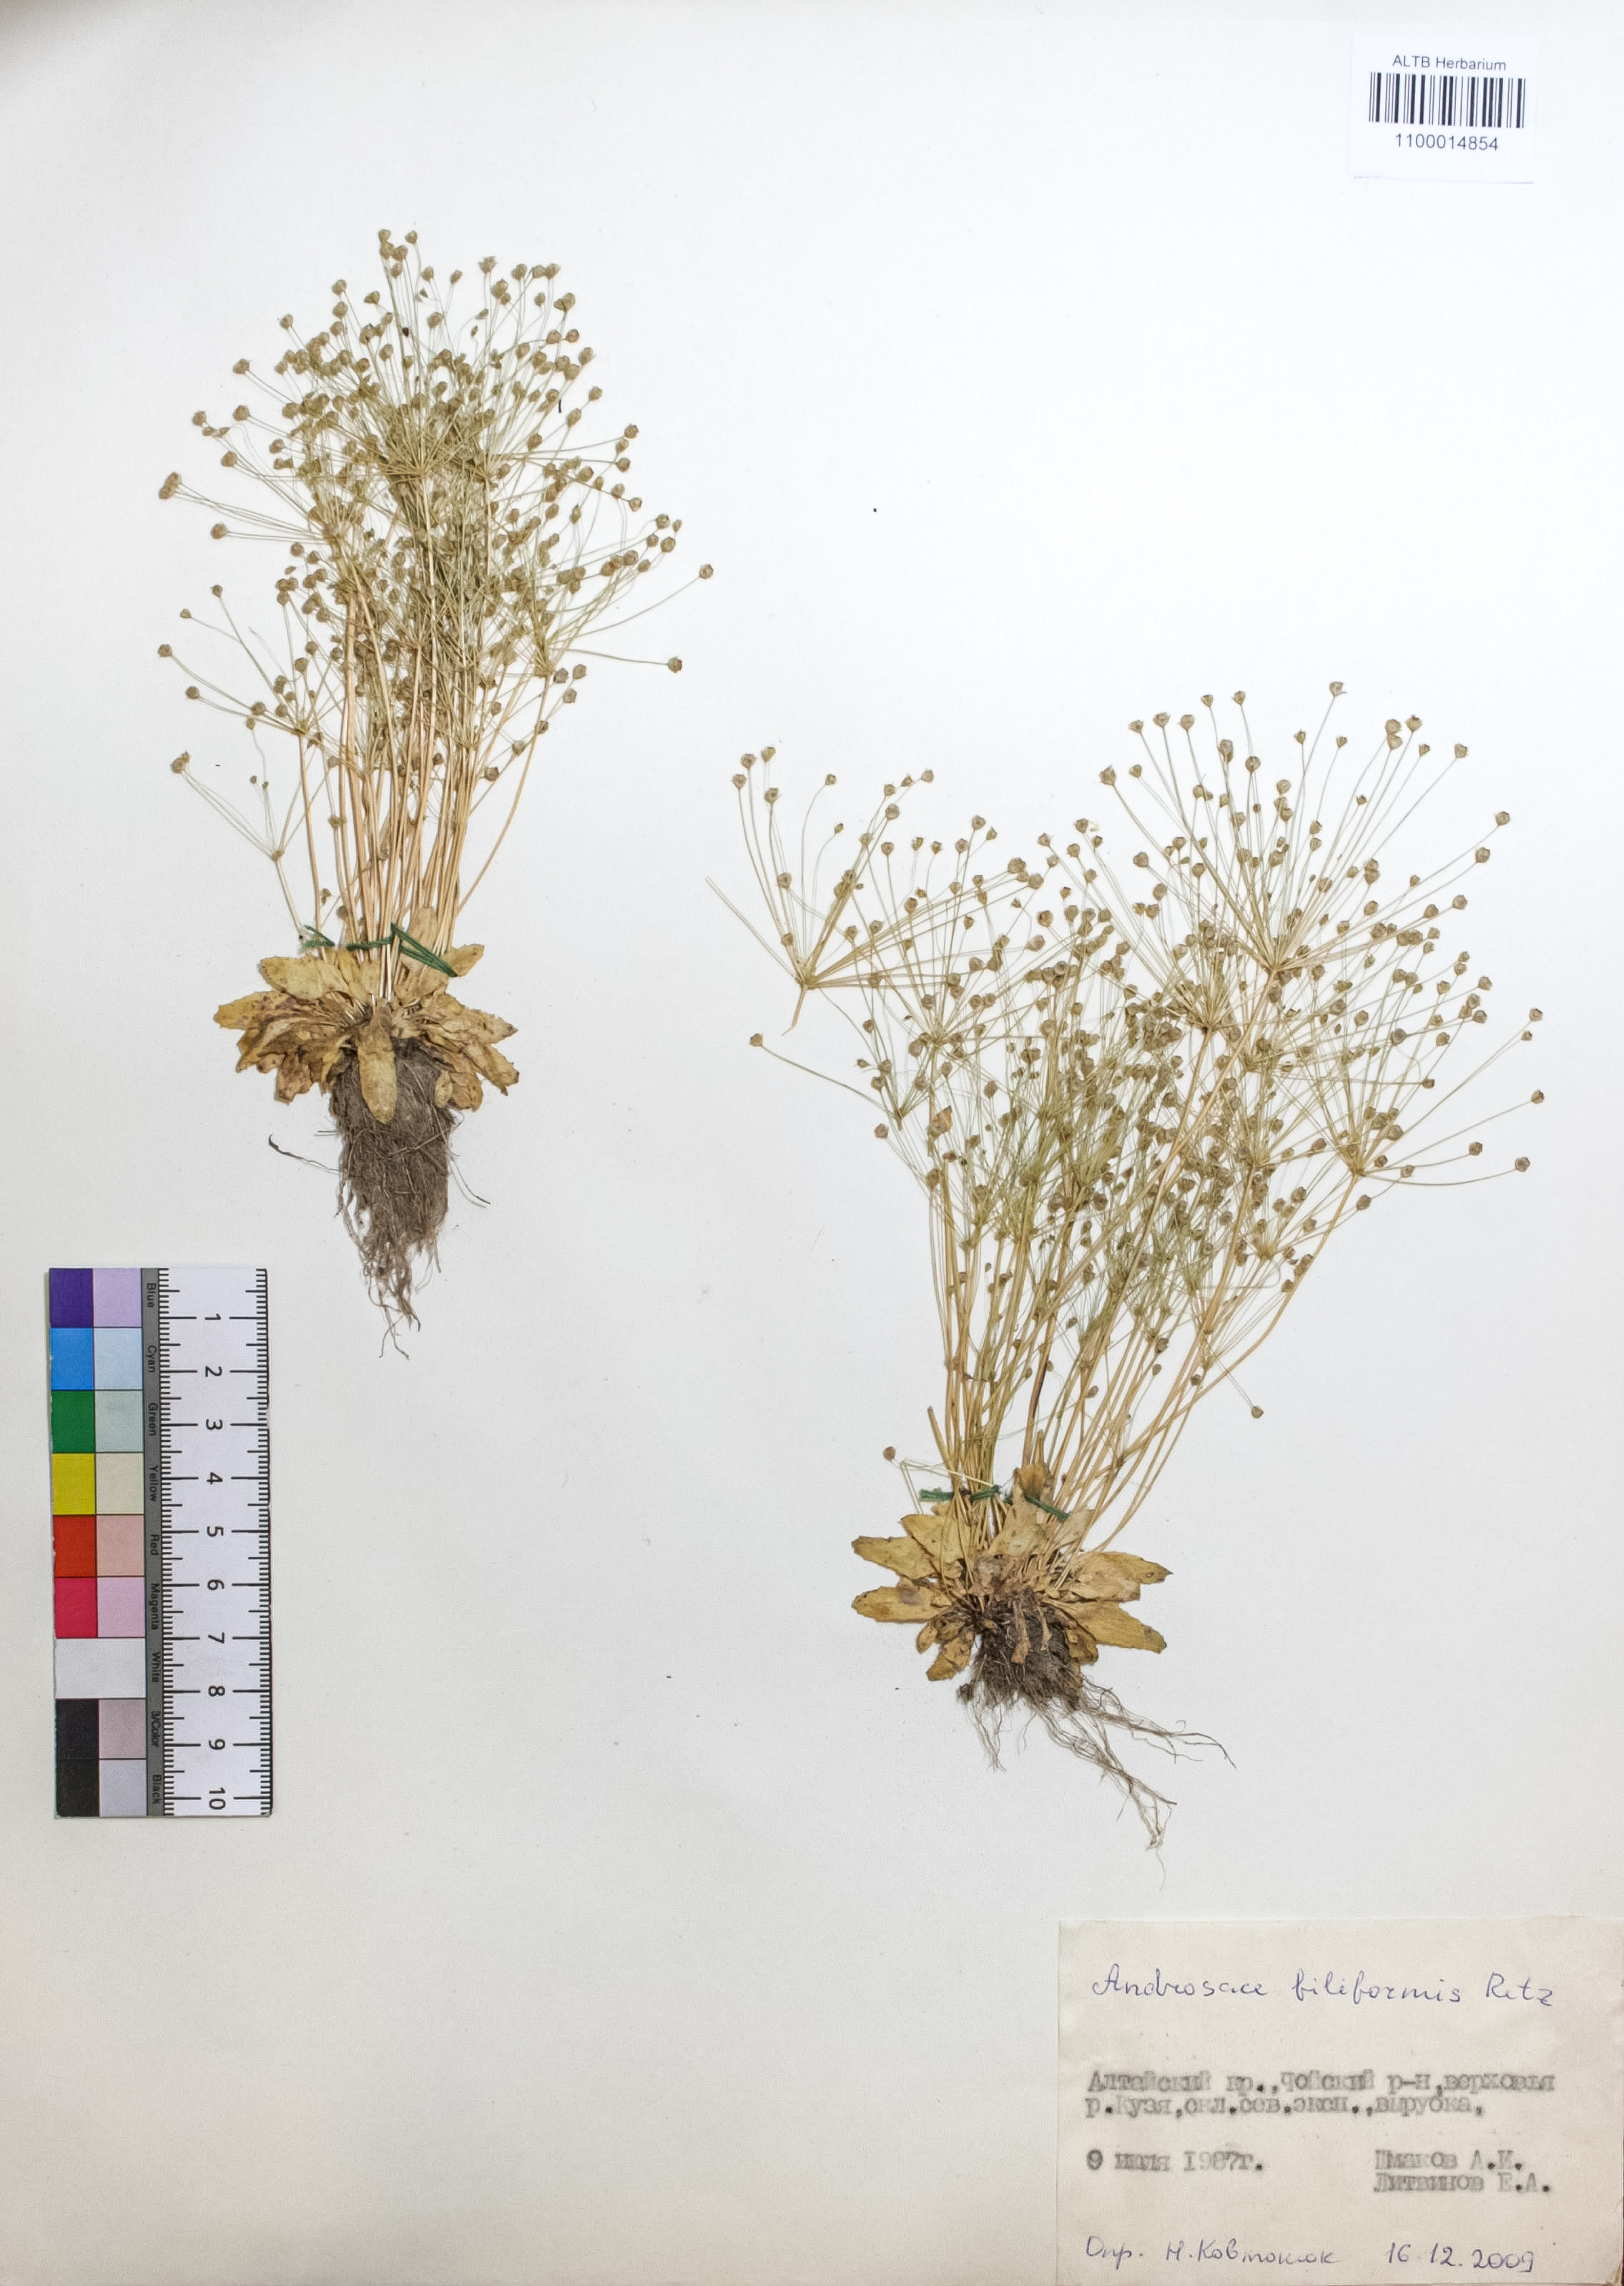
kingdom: Plantae
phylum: Tracheophyta
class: Magnoliopsida
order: Ericales
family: Primulaceae
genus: Androsace
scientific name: Androsace filiformis
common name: Filiform rock jasmine
